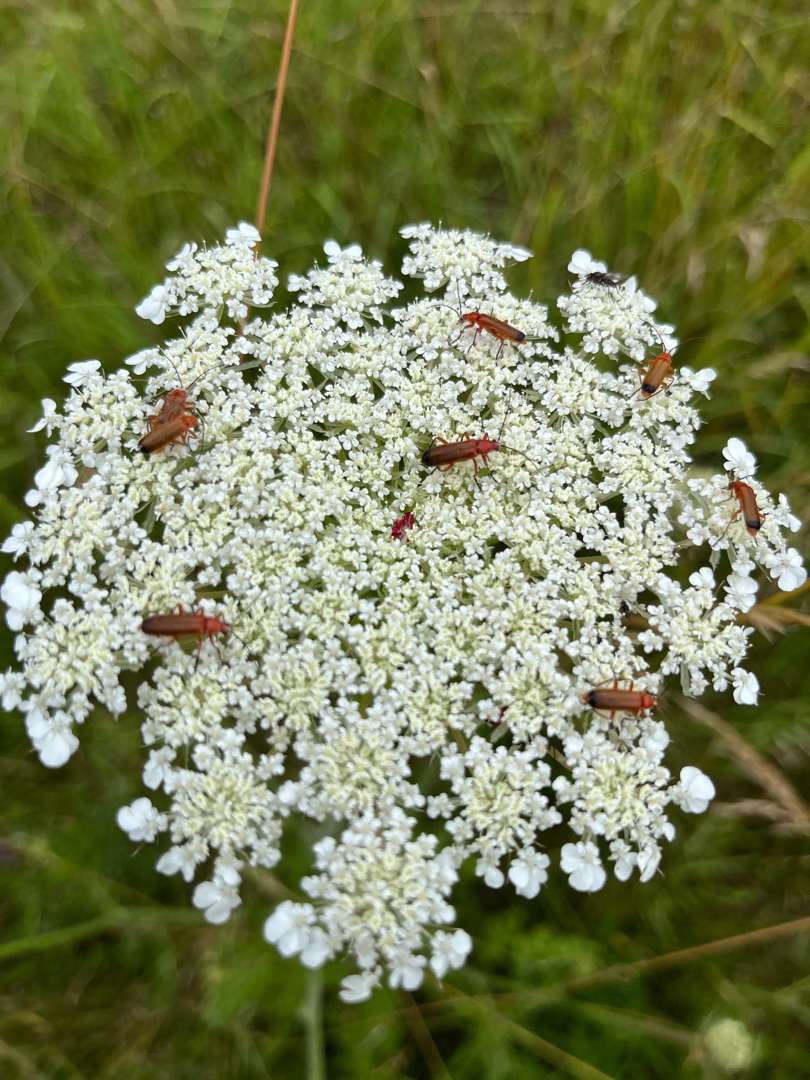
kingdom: Animalia
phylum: Arthropoda
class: Insecta
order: Coleoptera
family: Cantharidae
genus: Rhagonycha
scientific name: Rhagonycha fulva
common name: Præstebille
